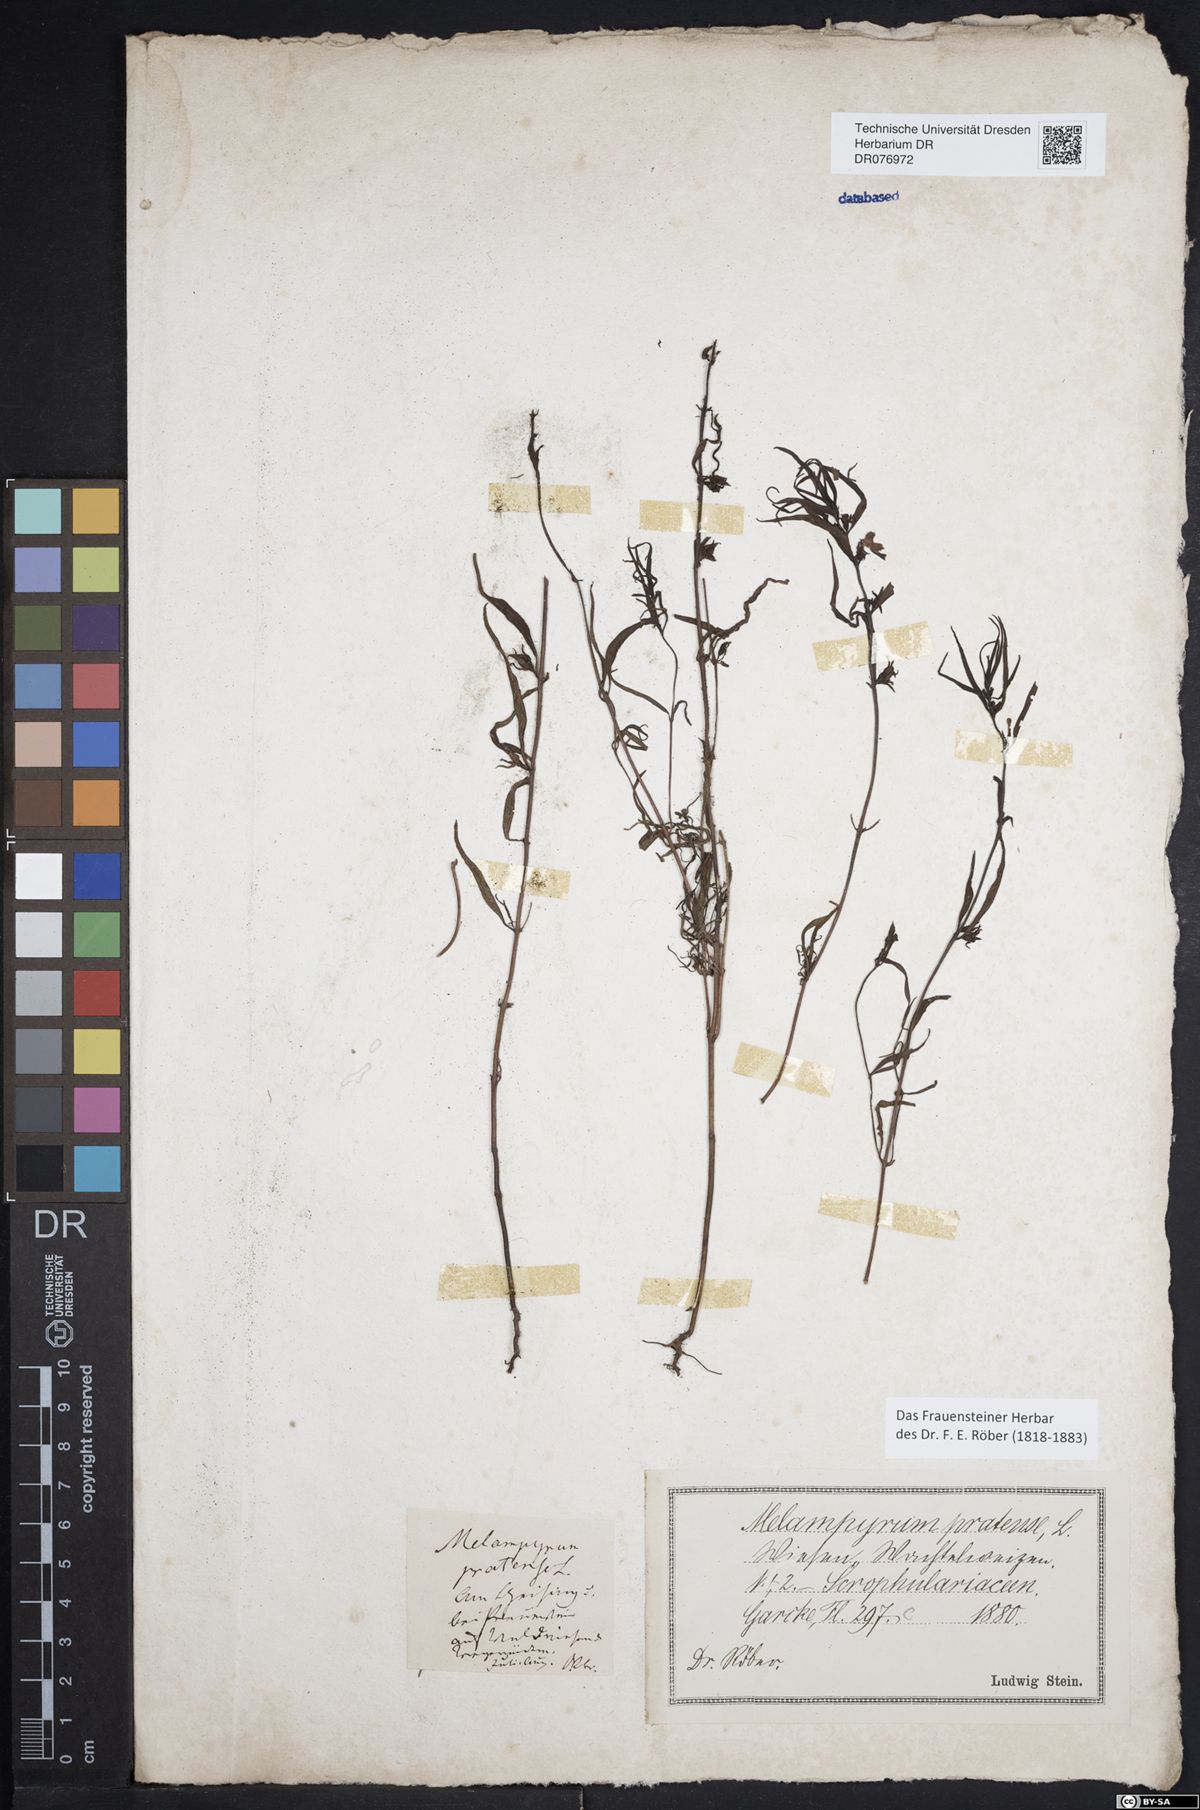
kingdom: Plantae
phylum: Tracheophyta
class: Magnoliopsida
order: Lamiales
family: Orobanchaceae
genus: Melampyrum
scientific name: Melampyrum pratense
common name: Common cow-wheat
